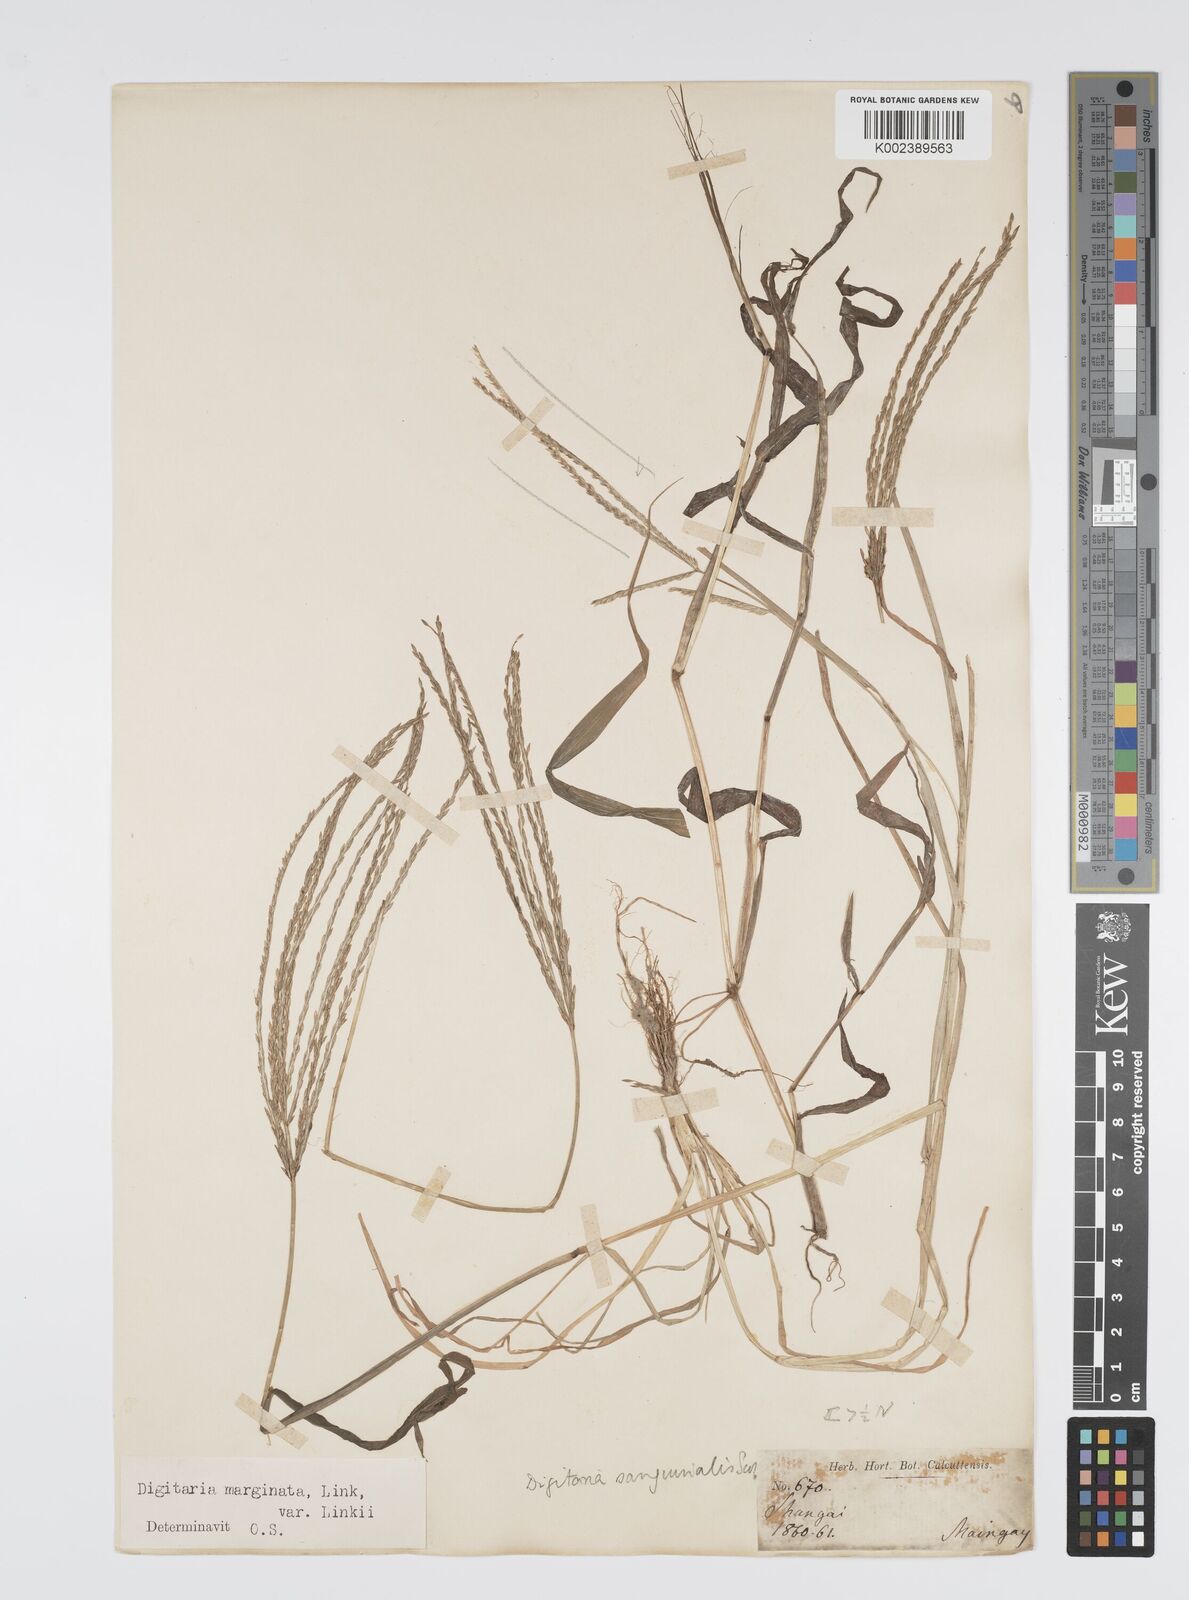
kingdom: Plantae
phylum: Tracheophyta
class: Liliopsida
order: Poales
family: Poaceae
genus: Digitaria
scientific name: Digitaria ciliaris
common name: Tropical finger-grass
